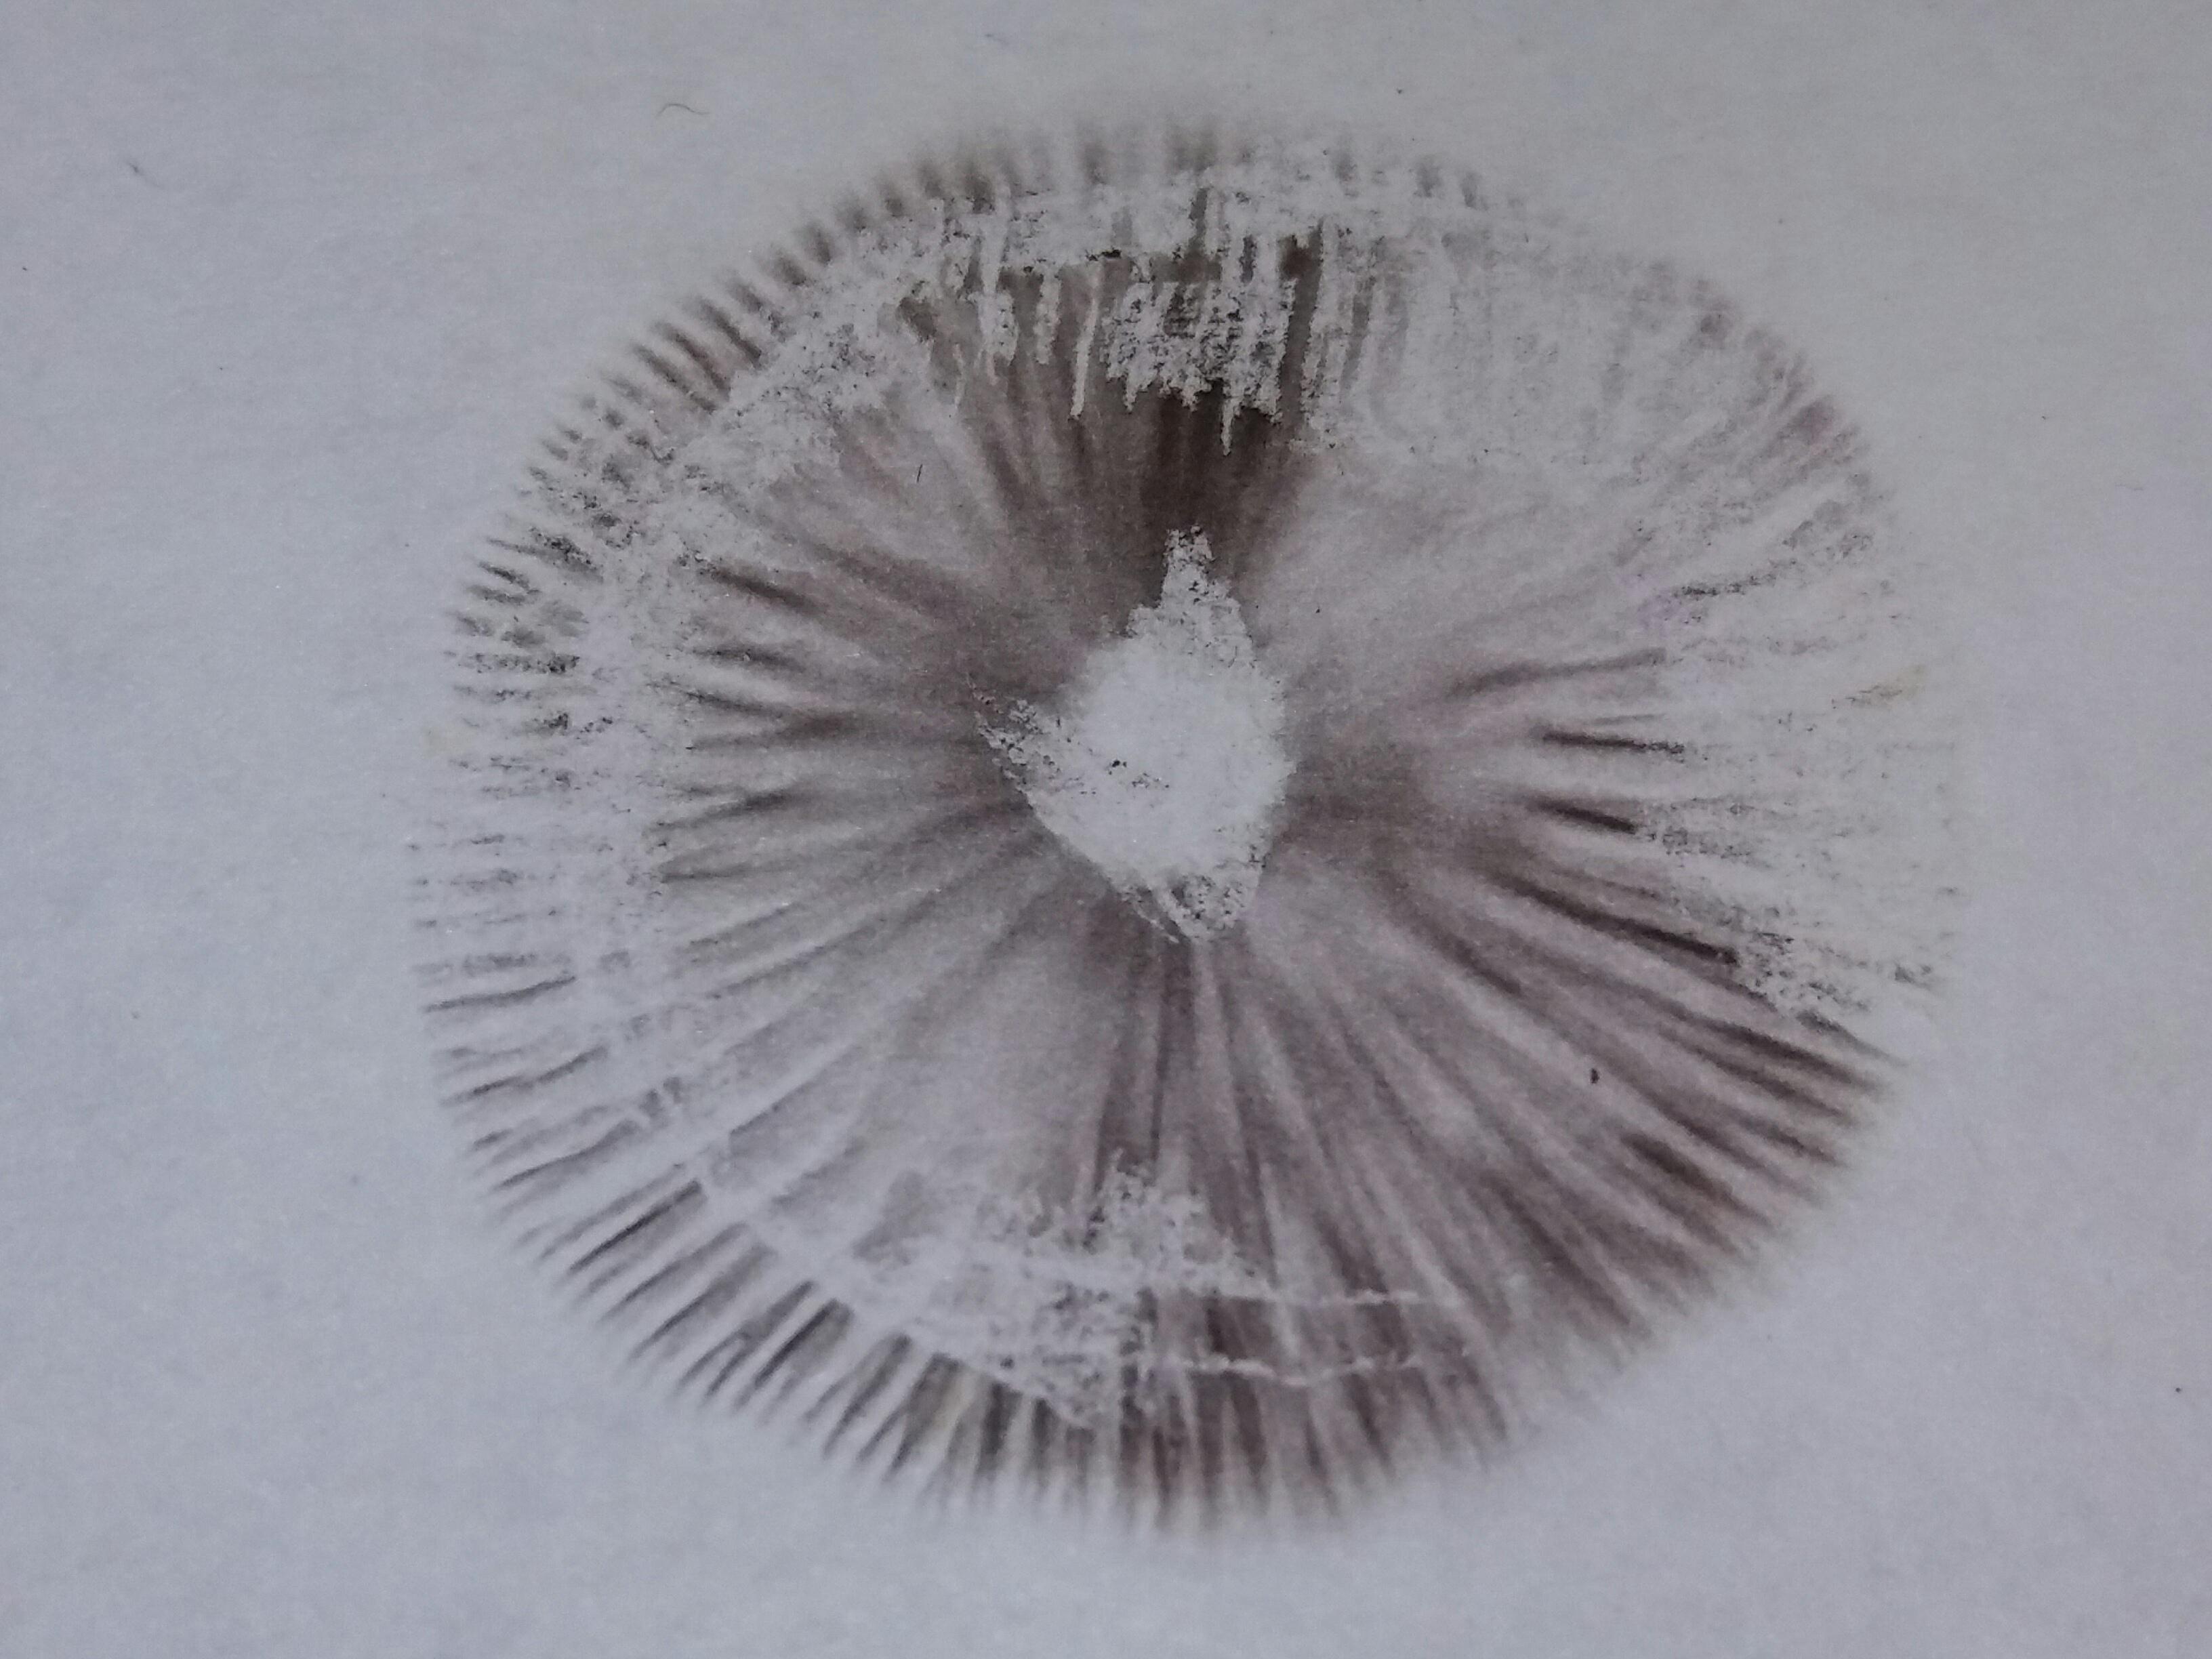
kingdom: Fungi
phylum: Basidiomycota
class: Agaricomycetes
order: Agaricales
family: Psathyrellaceae
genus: Psathyrella
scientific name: Psathyrella
